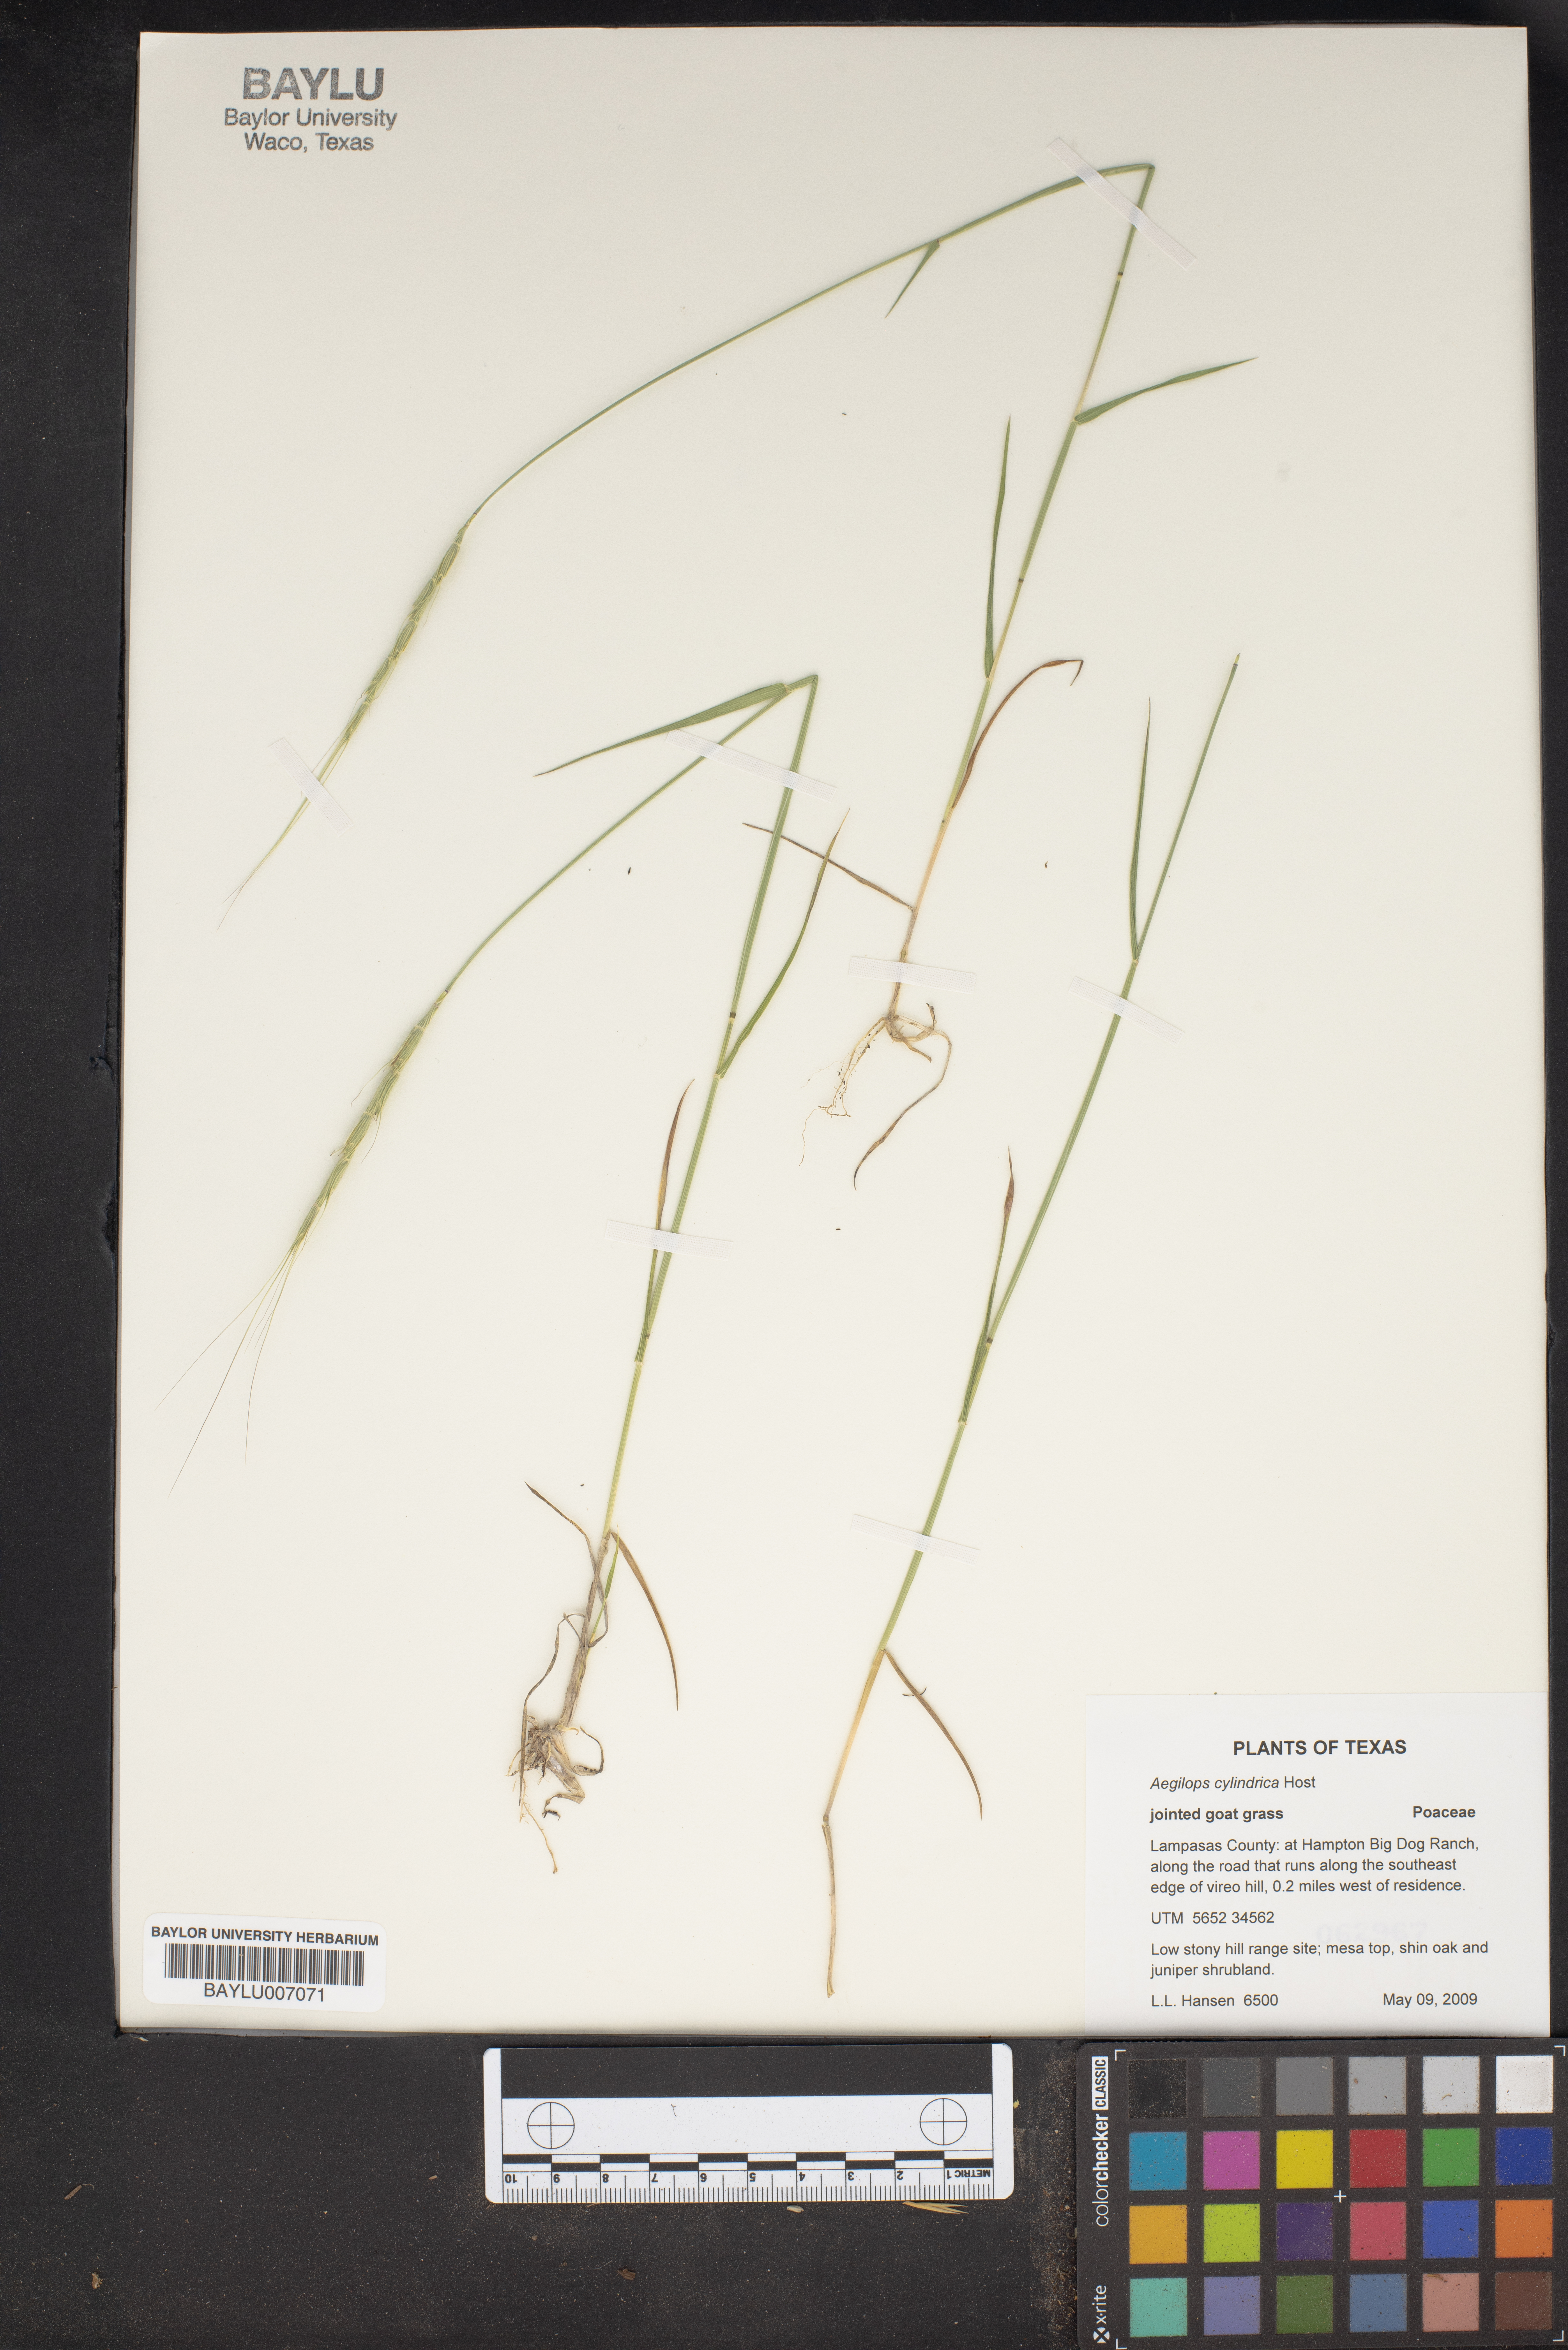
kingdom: Plantae
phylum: Tracheophyta
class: Liliopsida
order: Poales
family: Poaceae
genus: Aegilops
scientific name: Aegilops cylindrica
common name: Jointed goatgrass
